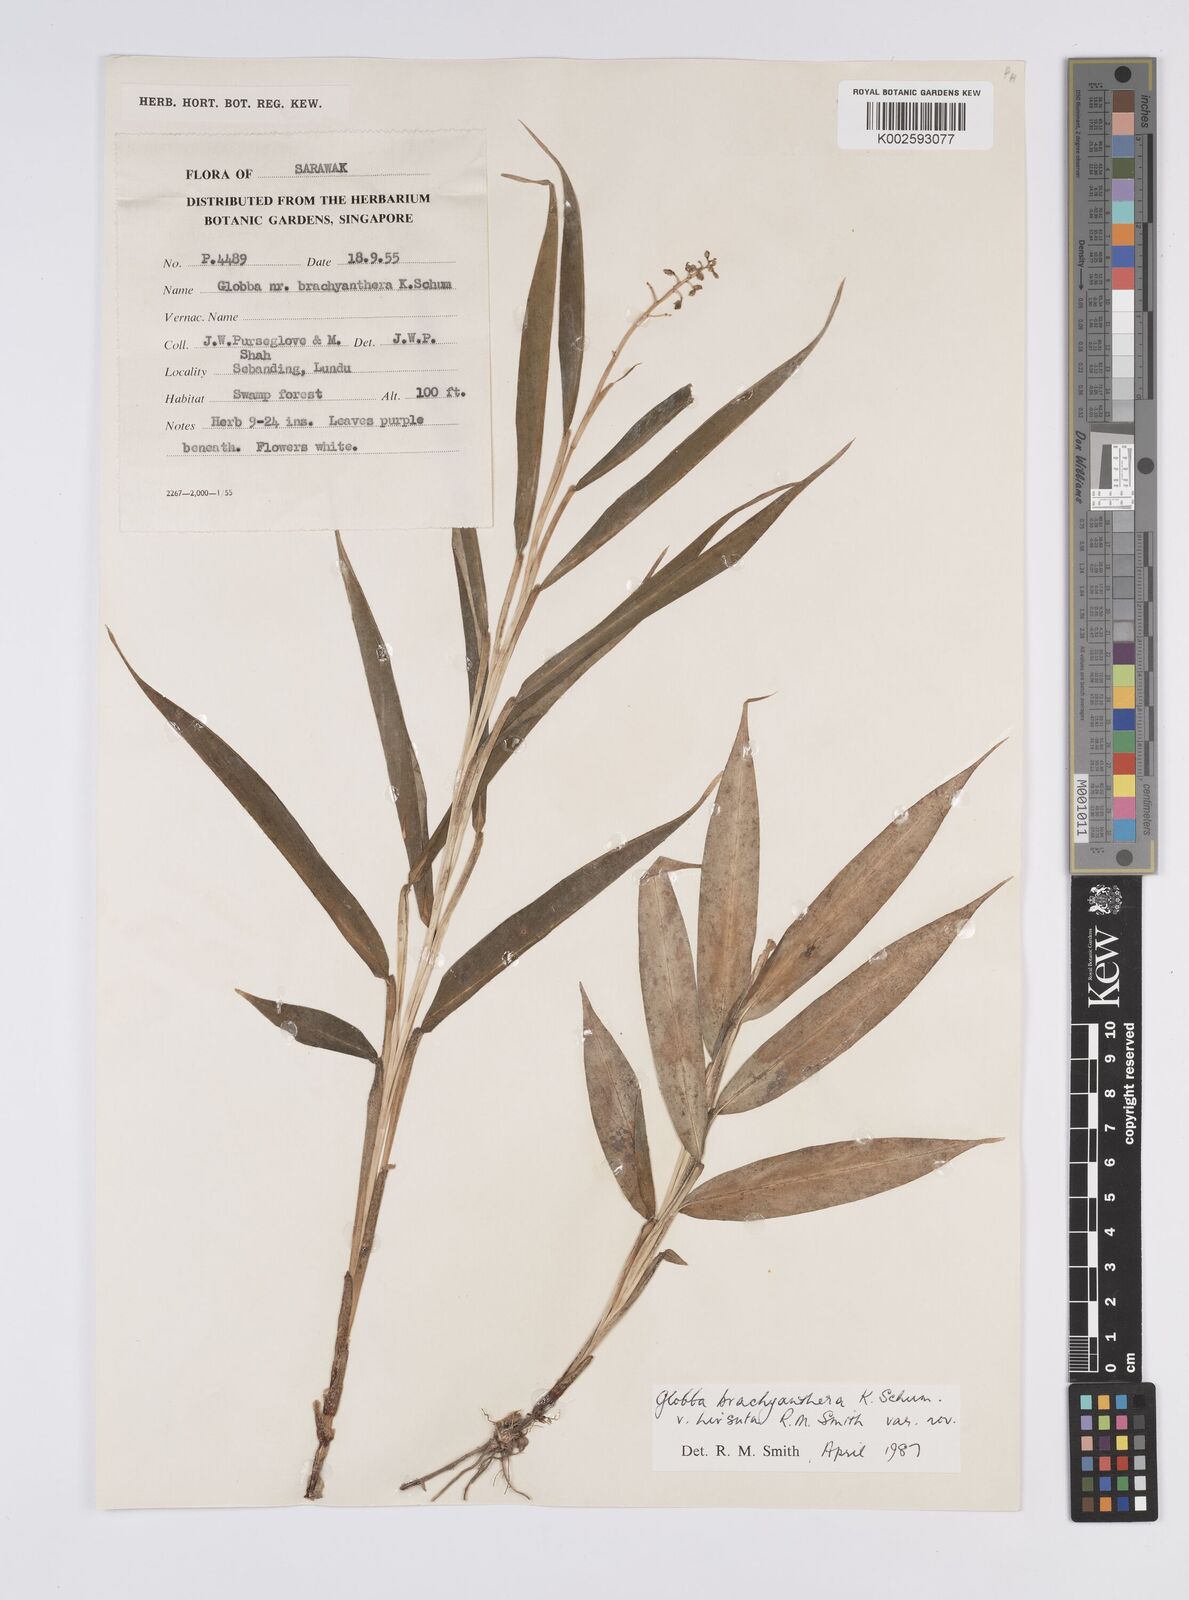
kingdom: Plantae
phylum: Tracheophyta
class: Liliopsida
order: Zingiberales
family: Zingiberaceae
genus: Globba
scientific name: Globba brachyanthera
